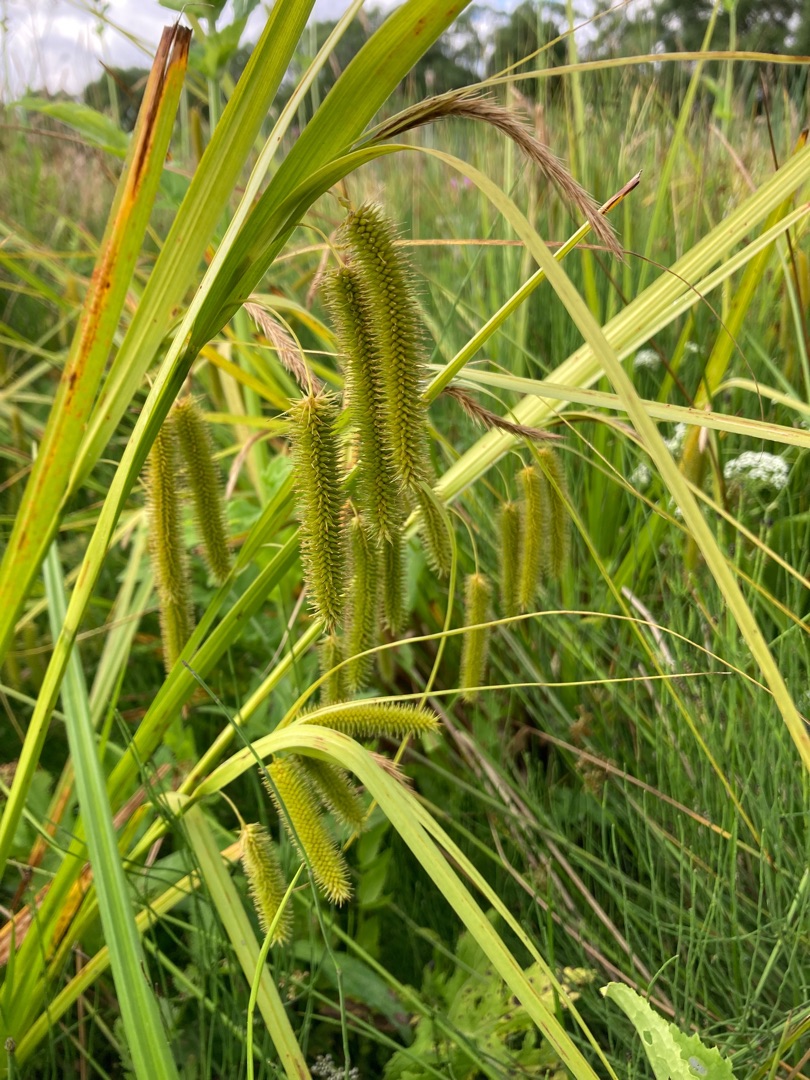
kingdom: Plantae
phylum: Tracheophyta
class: Liliopsida
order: Poales
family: Cyperaceae
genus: Carex
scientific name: Carex pseudocyperus
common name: Knippe-star
